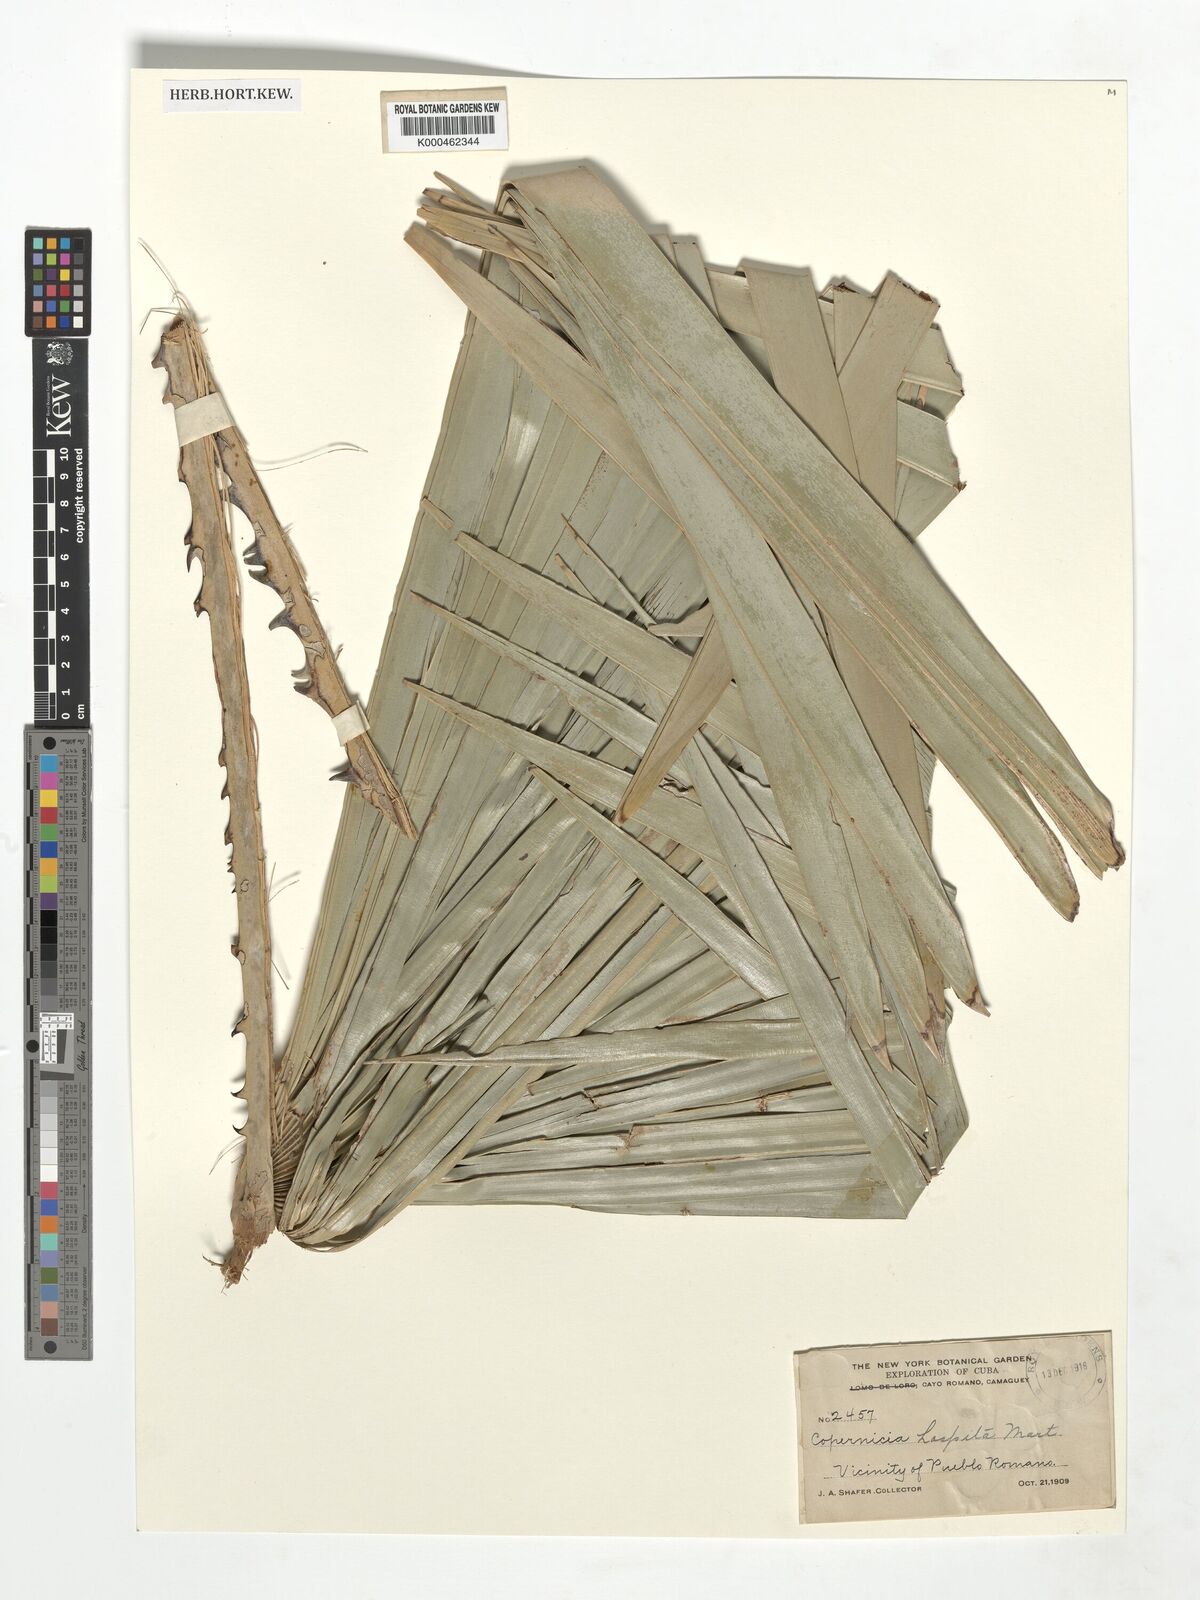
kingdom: Plantae
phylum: Tracheophyta
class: Liliopsida
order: Arecales
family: Arecaceae
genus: Copernicia
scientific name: Copernicia hospita
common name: Cubam palm
